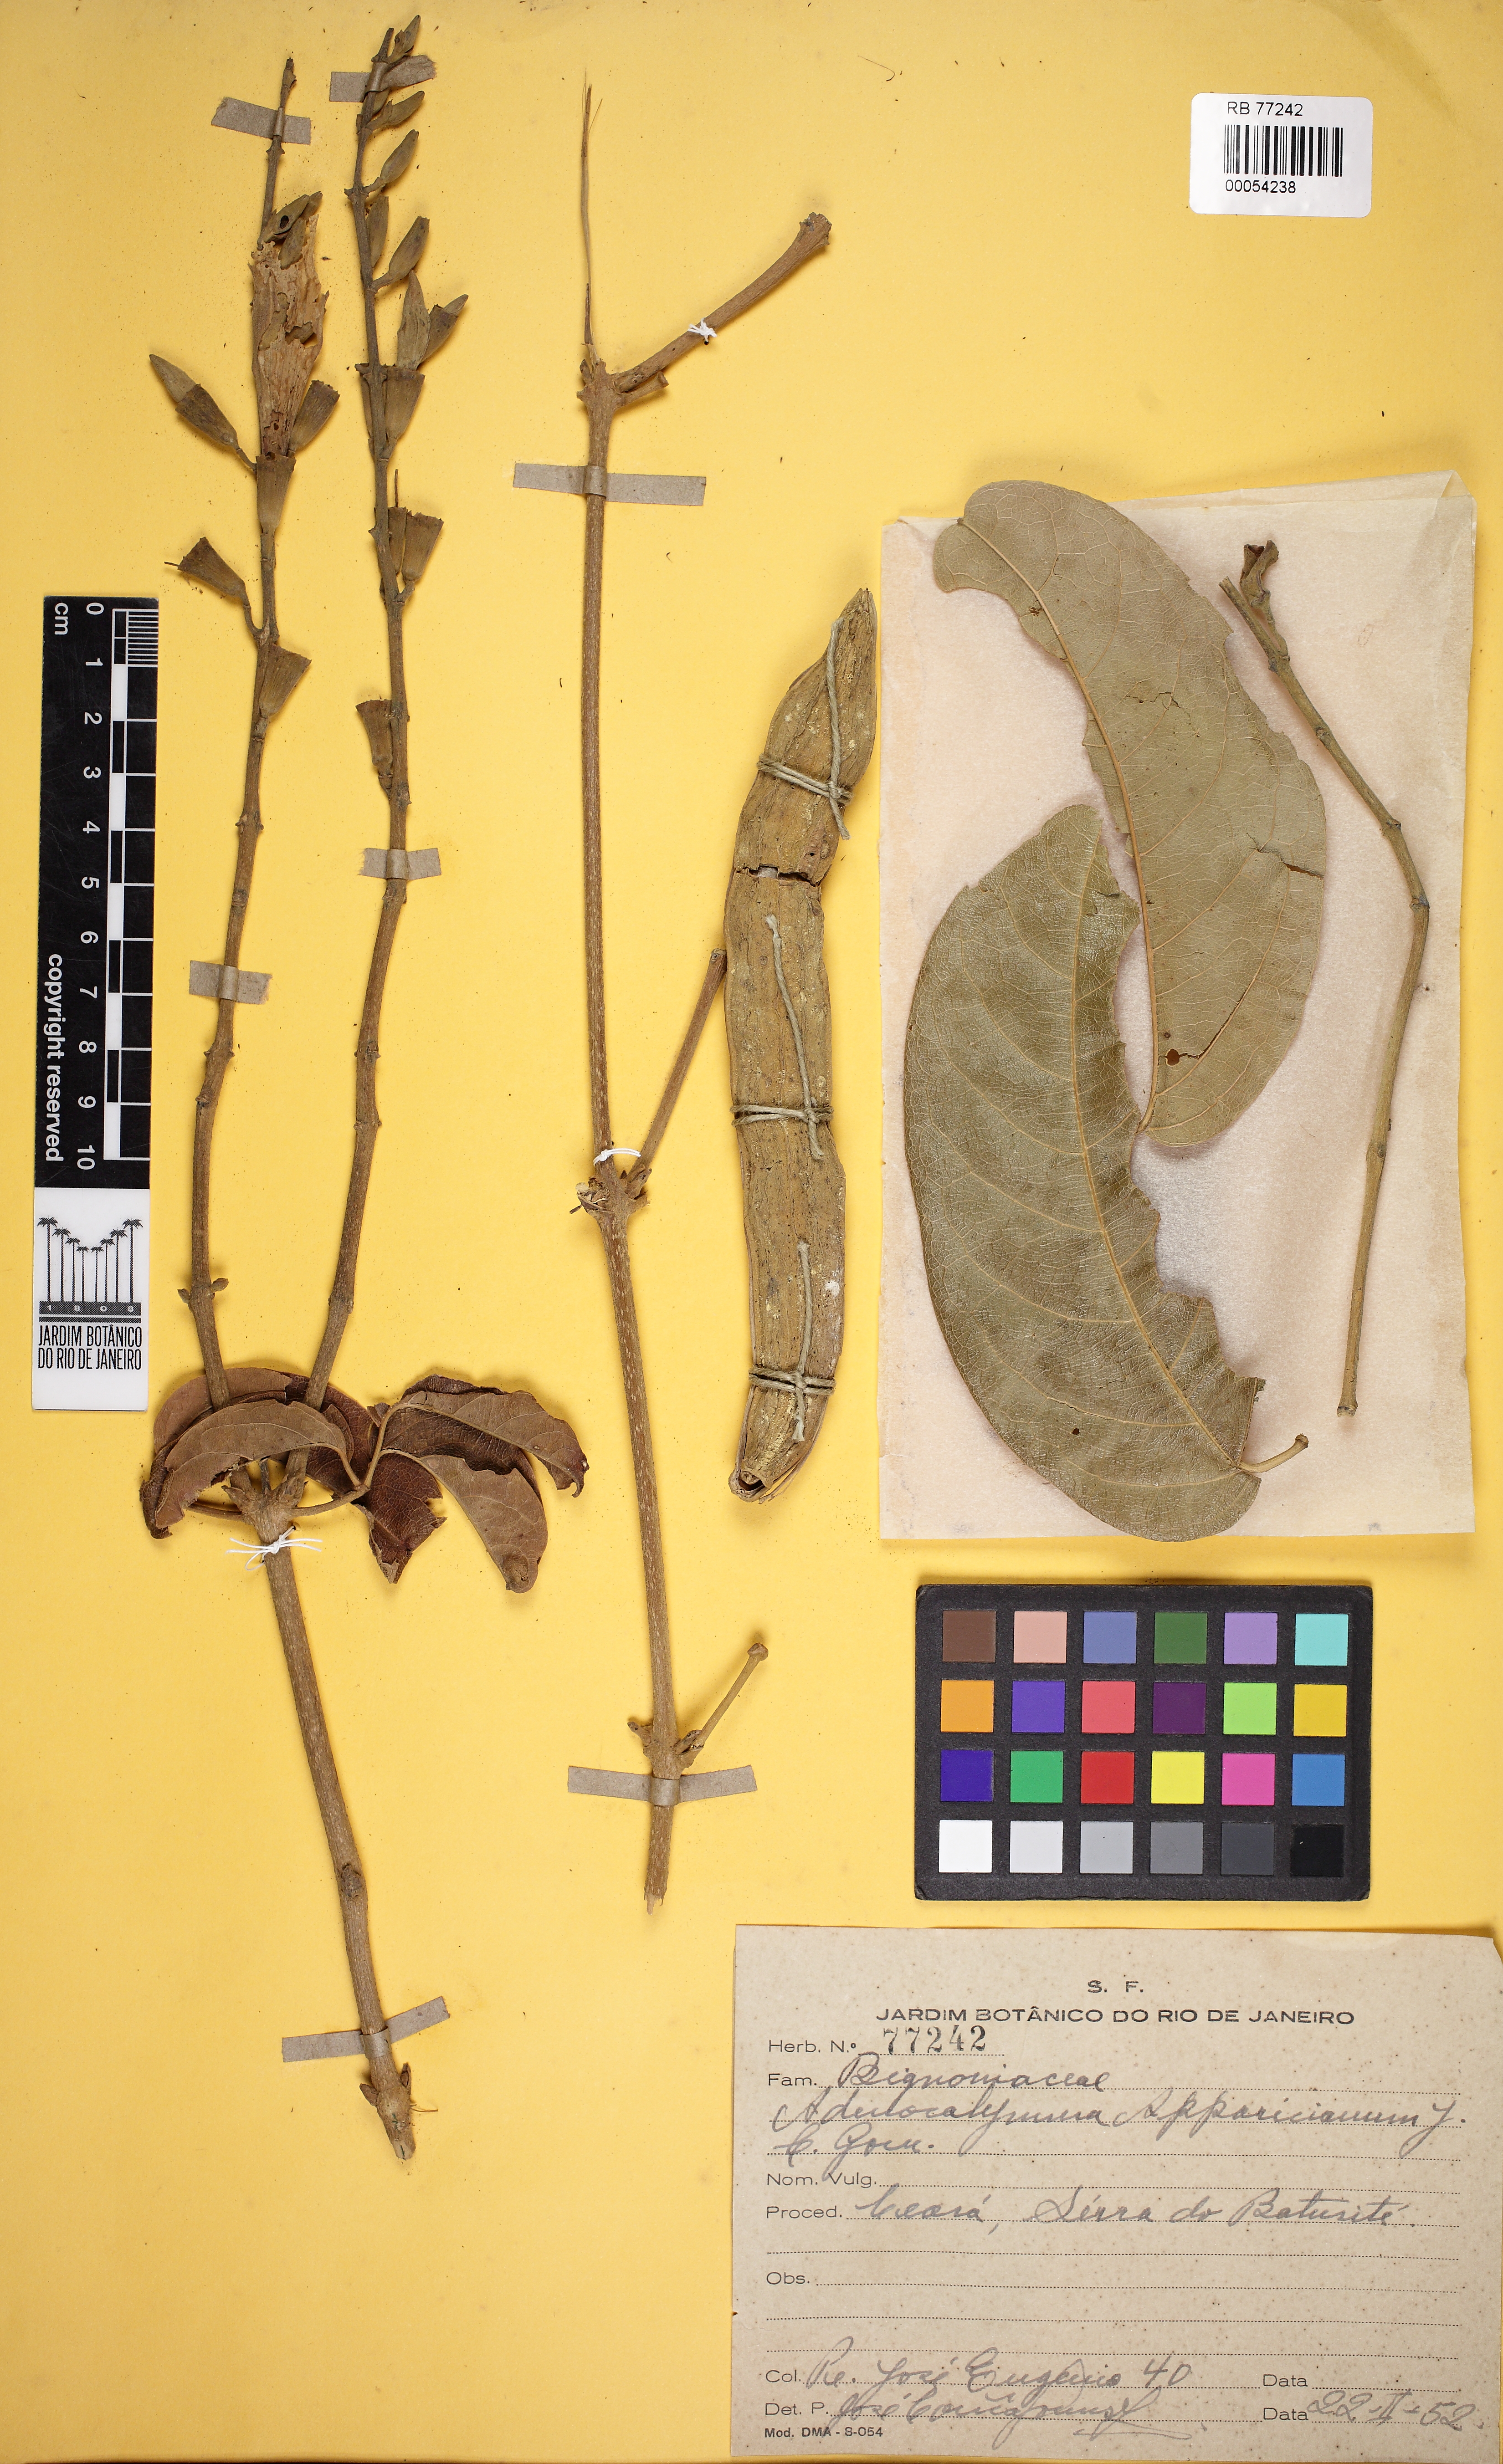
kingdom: Plantae
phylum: Tracheophyta
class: Magnoliopsida
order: Lamiales
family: Bignoniaceae
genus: Adenocalymma
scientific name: Adenocalymma apparicianum
